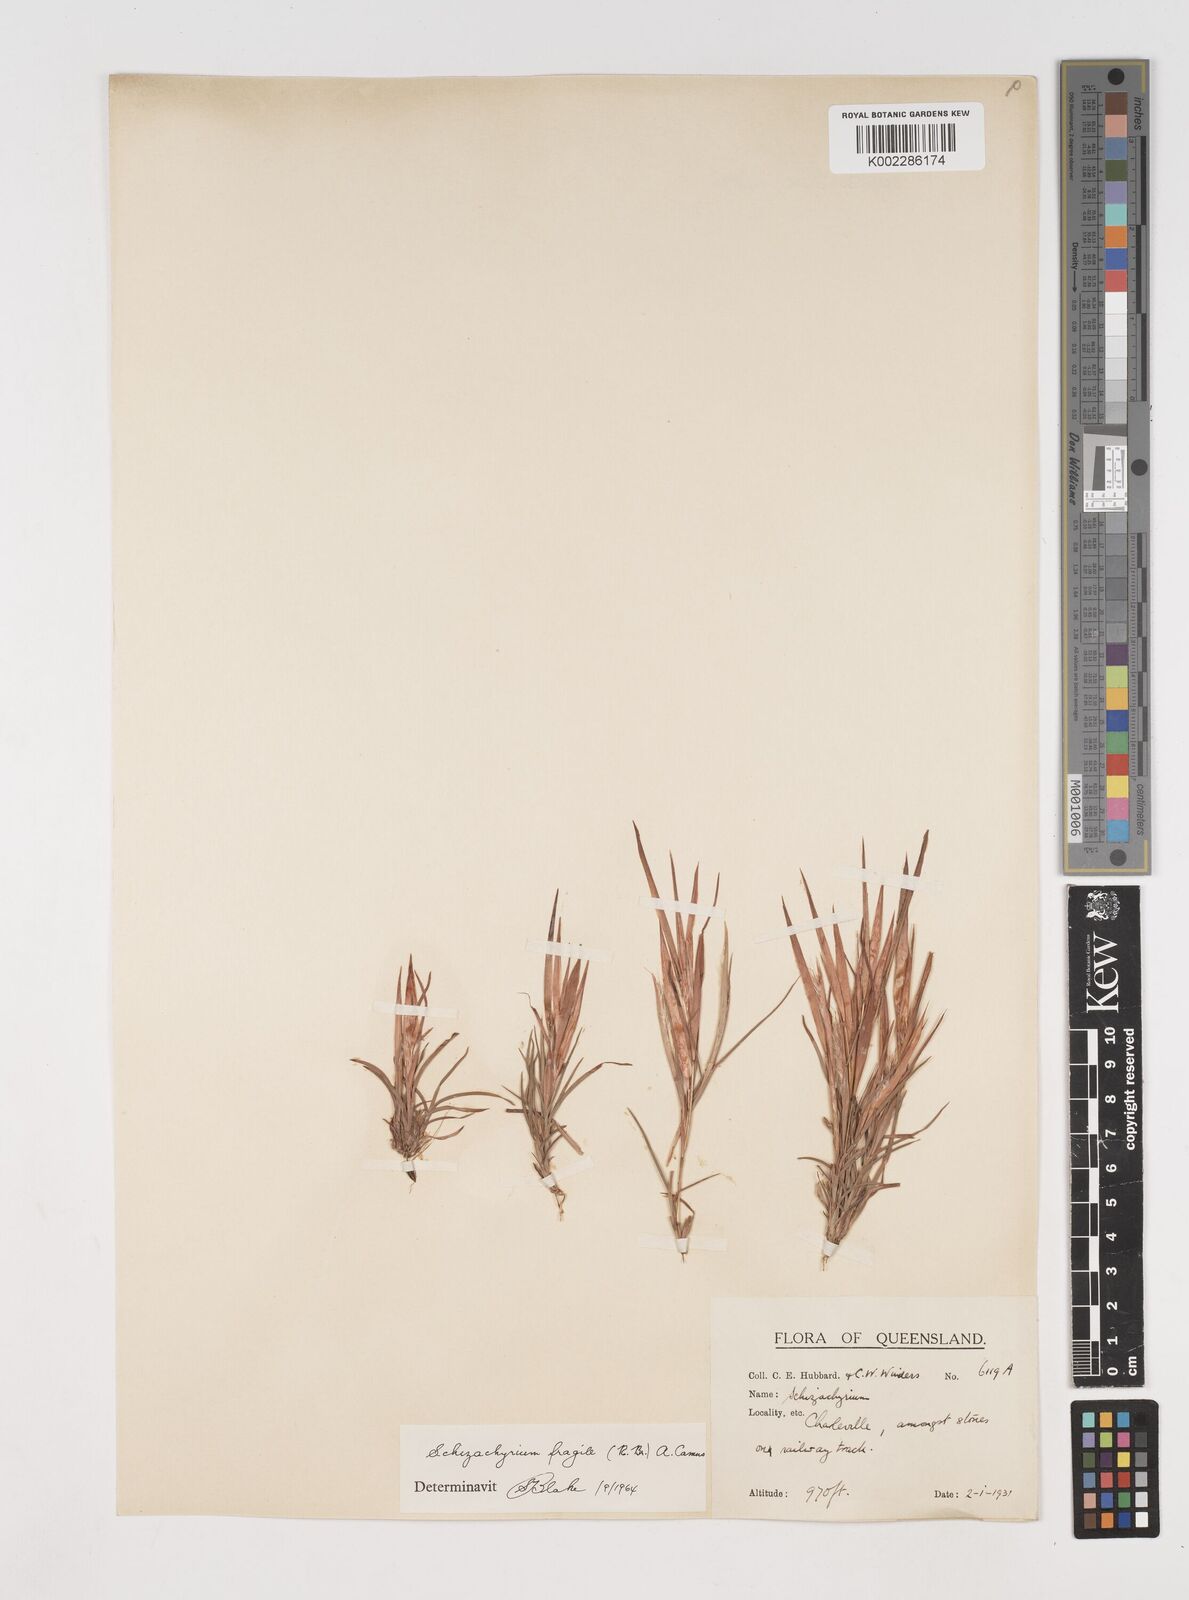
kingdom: Plantae
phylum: Tracheophyta
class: Liliopsida
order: Poales
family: Poaceae
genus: Schizachyrium
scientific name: Schizachyrium fragile
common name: Red spathe grass
